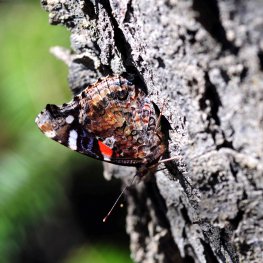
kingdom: Animalia
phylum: Arthropoda
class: Insecta
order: Lepidoptera
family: Nymphalidae
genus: Vanessa
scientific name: Vanessa atalanta
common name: Red Admiral
